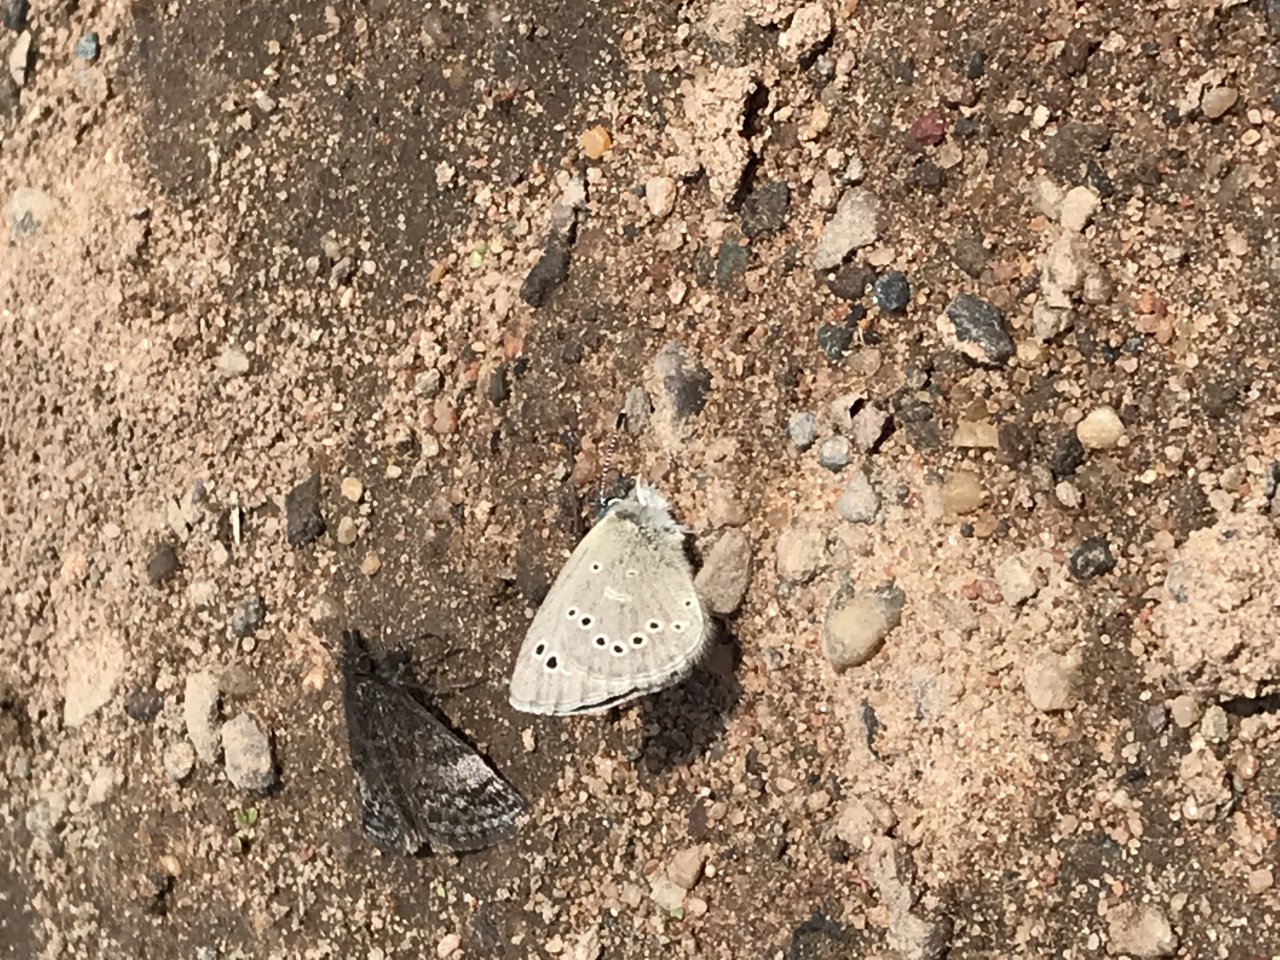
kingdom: Animalia
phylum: Arthropoda
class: Insecta
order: Lepidoptera
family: Lycaenidae
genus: Glaucopsyche
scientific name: Glaucopsyche lygdamus
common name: Silvery Blue
